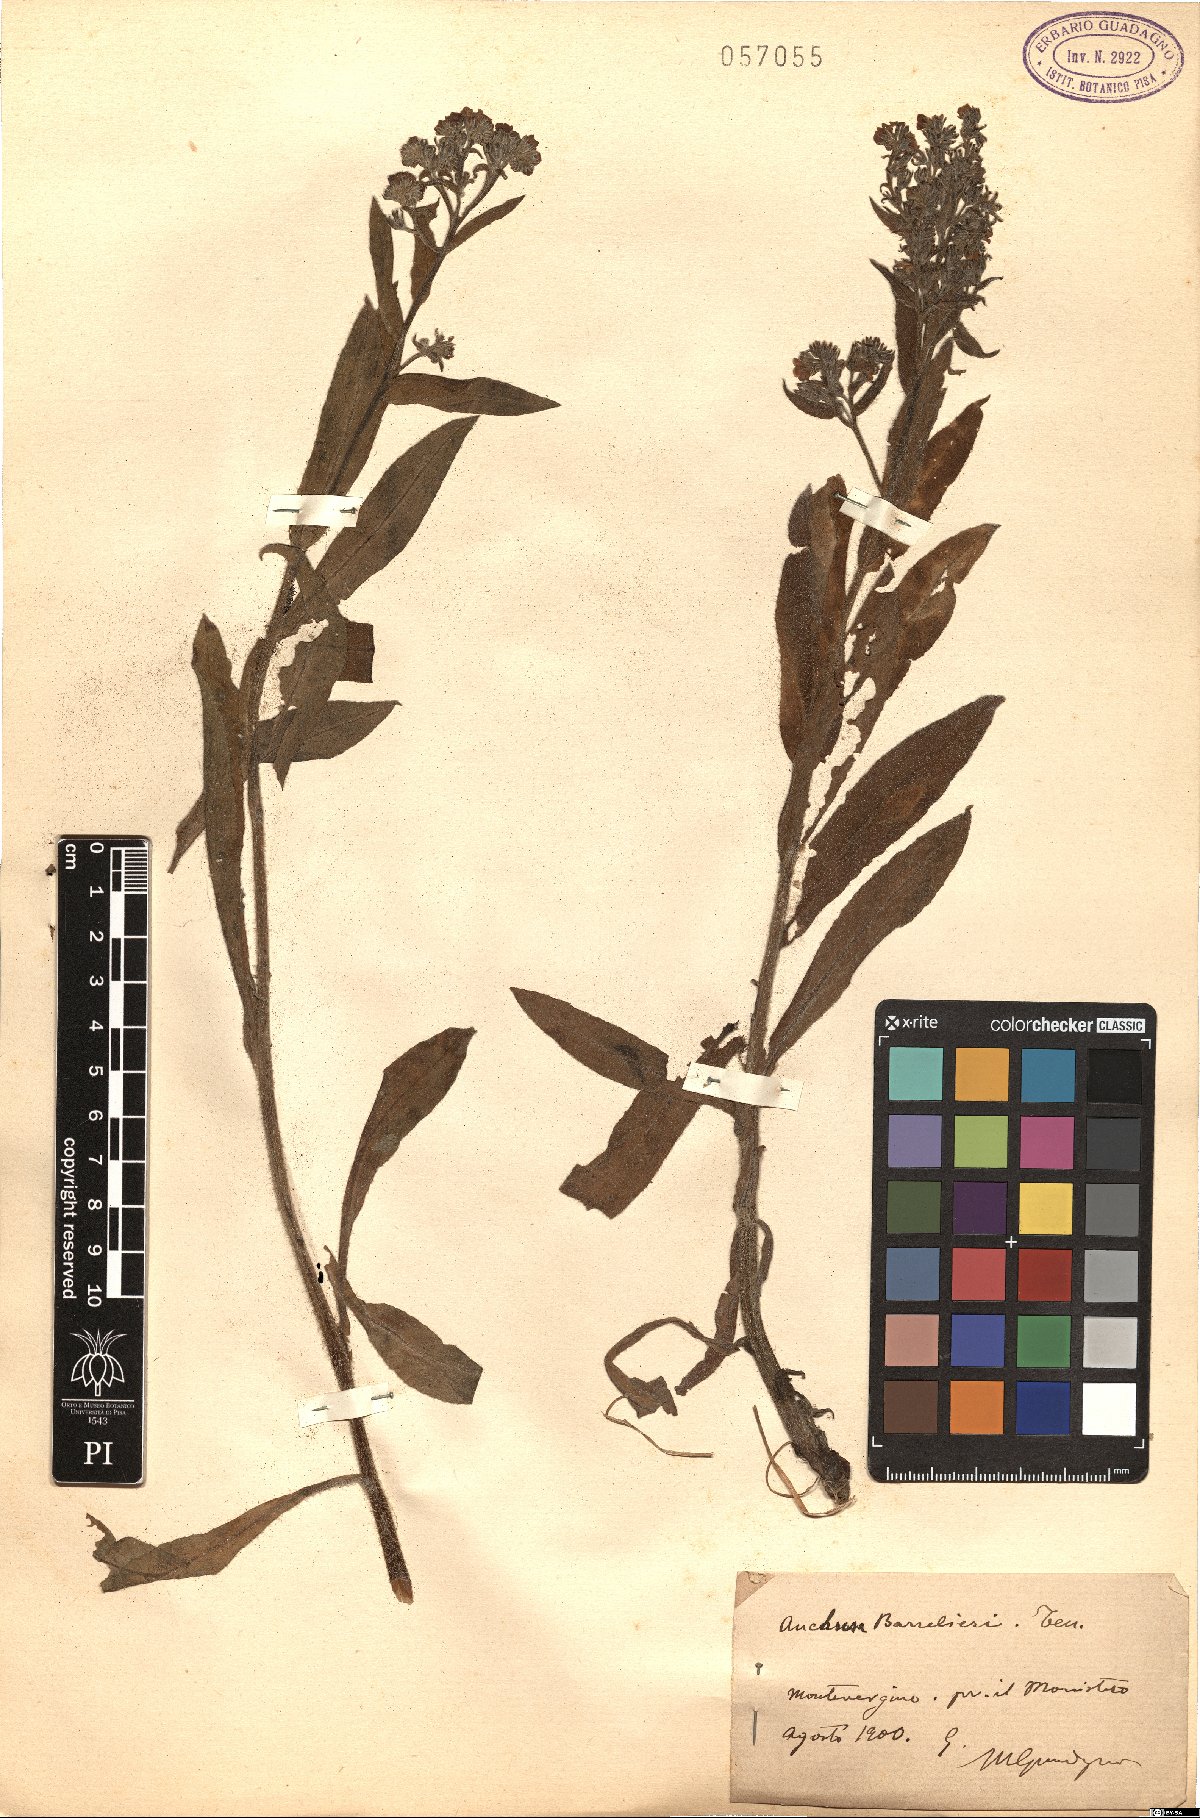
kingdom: Plantae
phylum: Tracheophyta
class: Magnoliopsida
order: Boraginales
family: Boraginaceae
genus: Cynoglottis
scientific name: Cynoglottis barrelieri
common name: False alkanet
